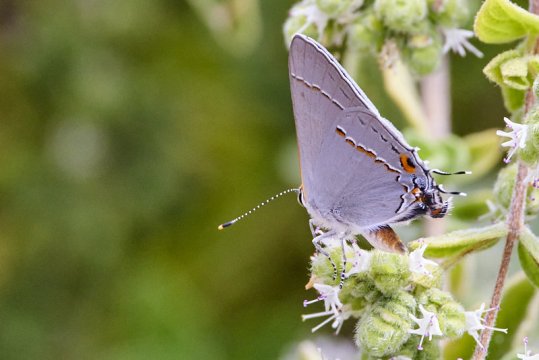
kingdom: Animalia
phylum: Arthropoda
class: Insecta
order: Lepidoptera
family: Lycaenidae
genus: Strymon
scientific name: Strymon melinus
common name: Gray Hairstreak
